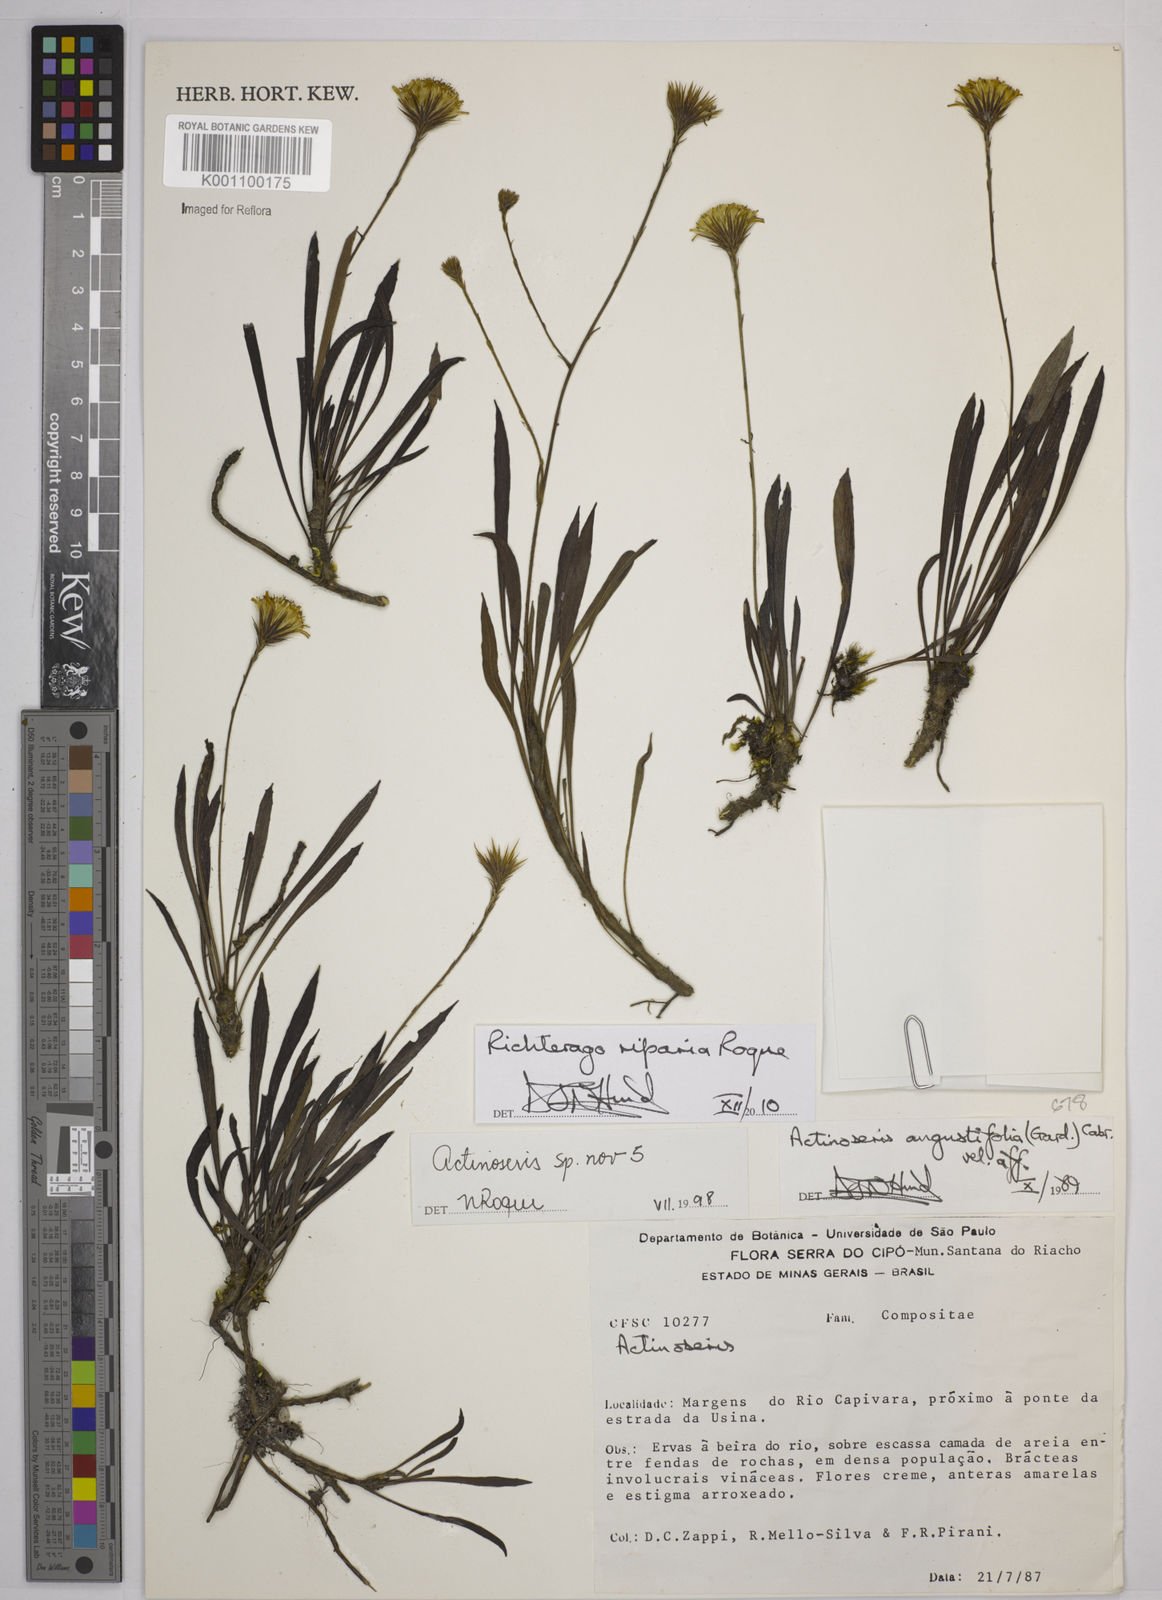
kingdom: Plantae
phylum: Tracheophyta
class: Magnoliopsida
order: Asterales
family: Asteraceae
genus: Richterago
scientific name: Richterago
